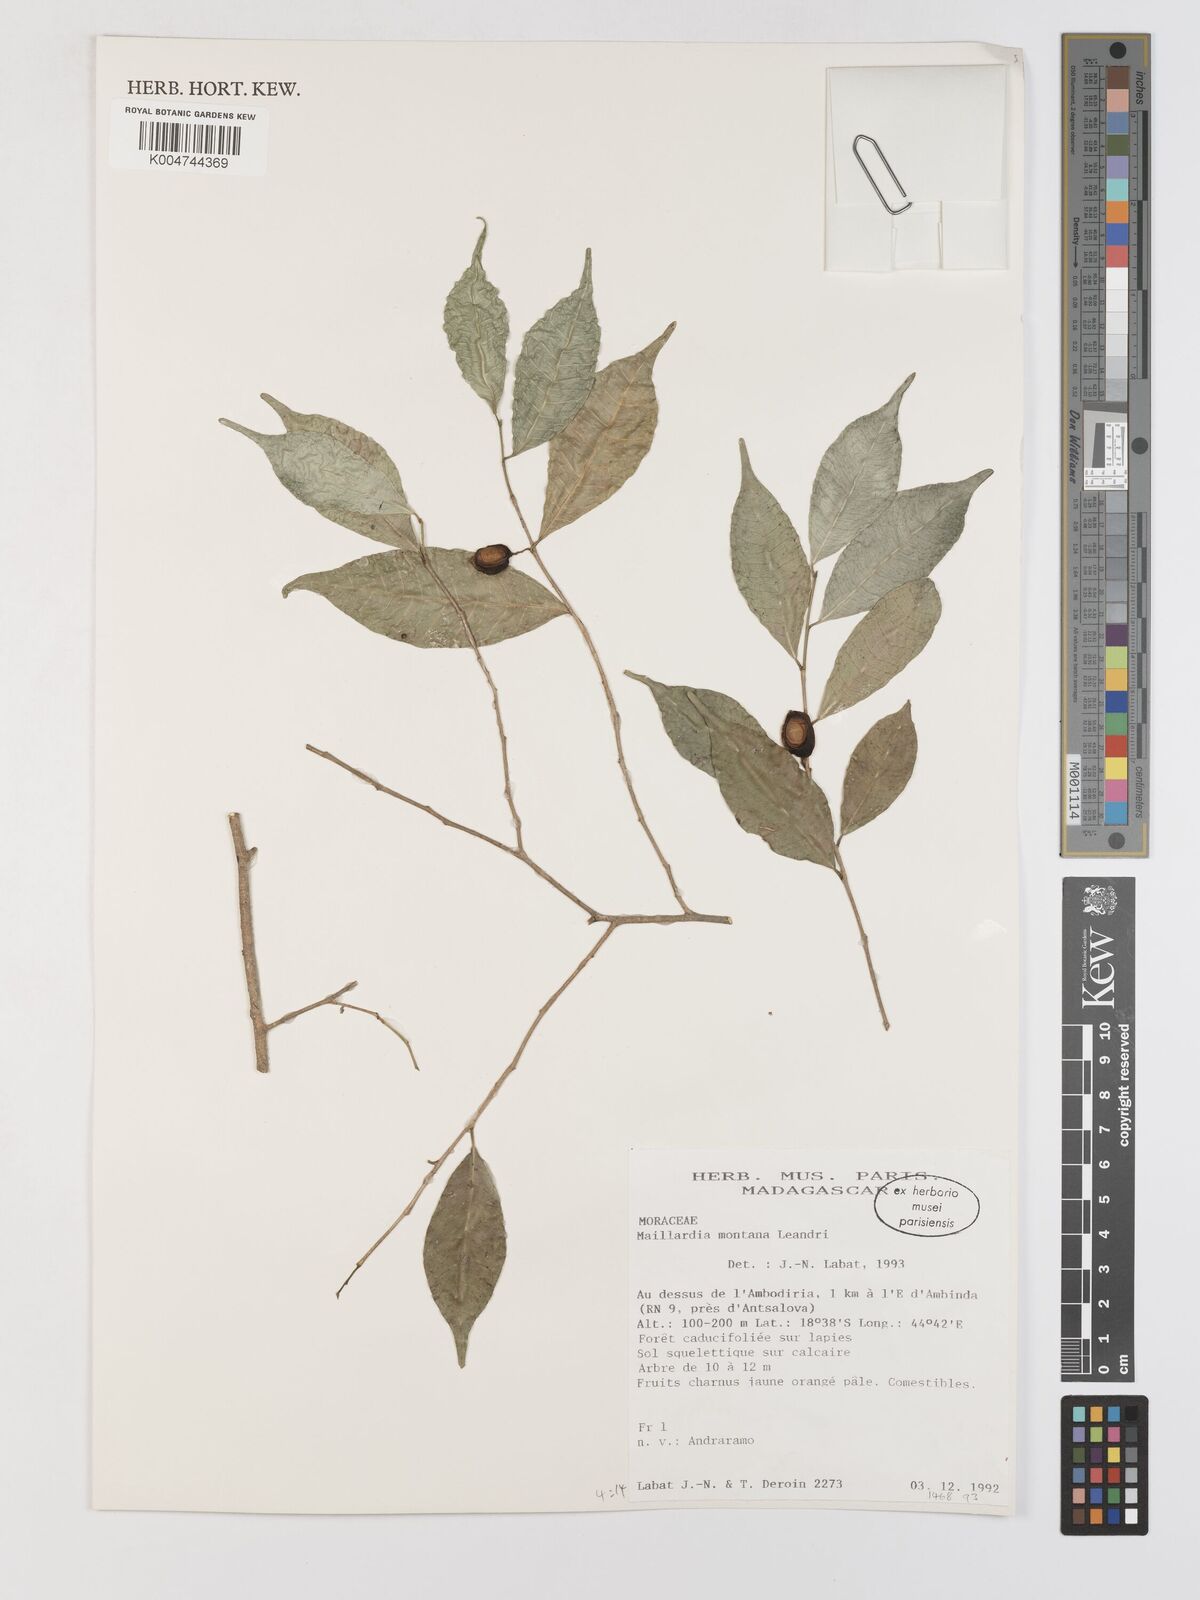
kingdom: Plantae
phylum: Tracheophyta
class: Magnoliopsida
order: Rosales
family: Moraceae
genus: Maillardia
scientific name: Maillardia montana
